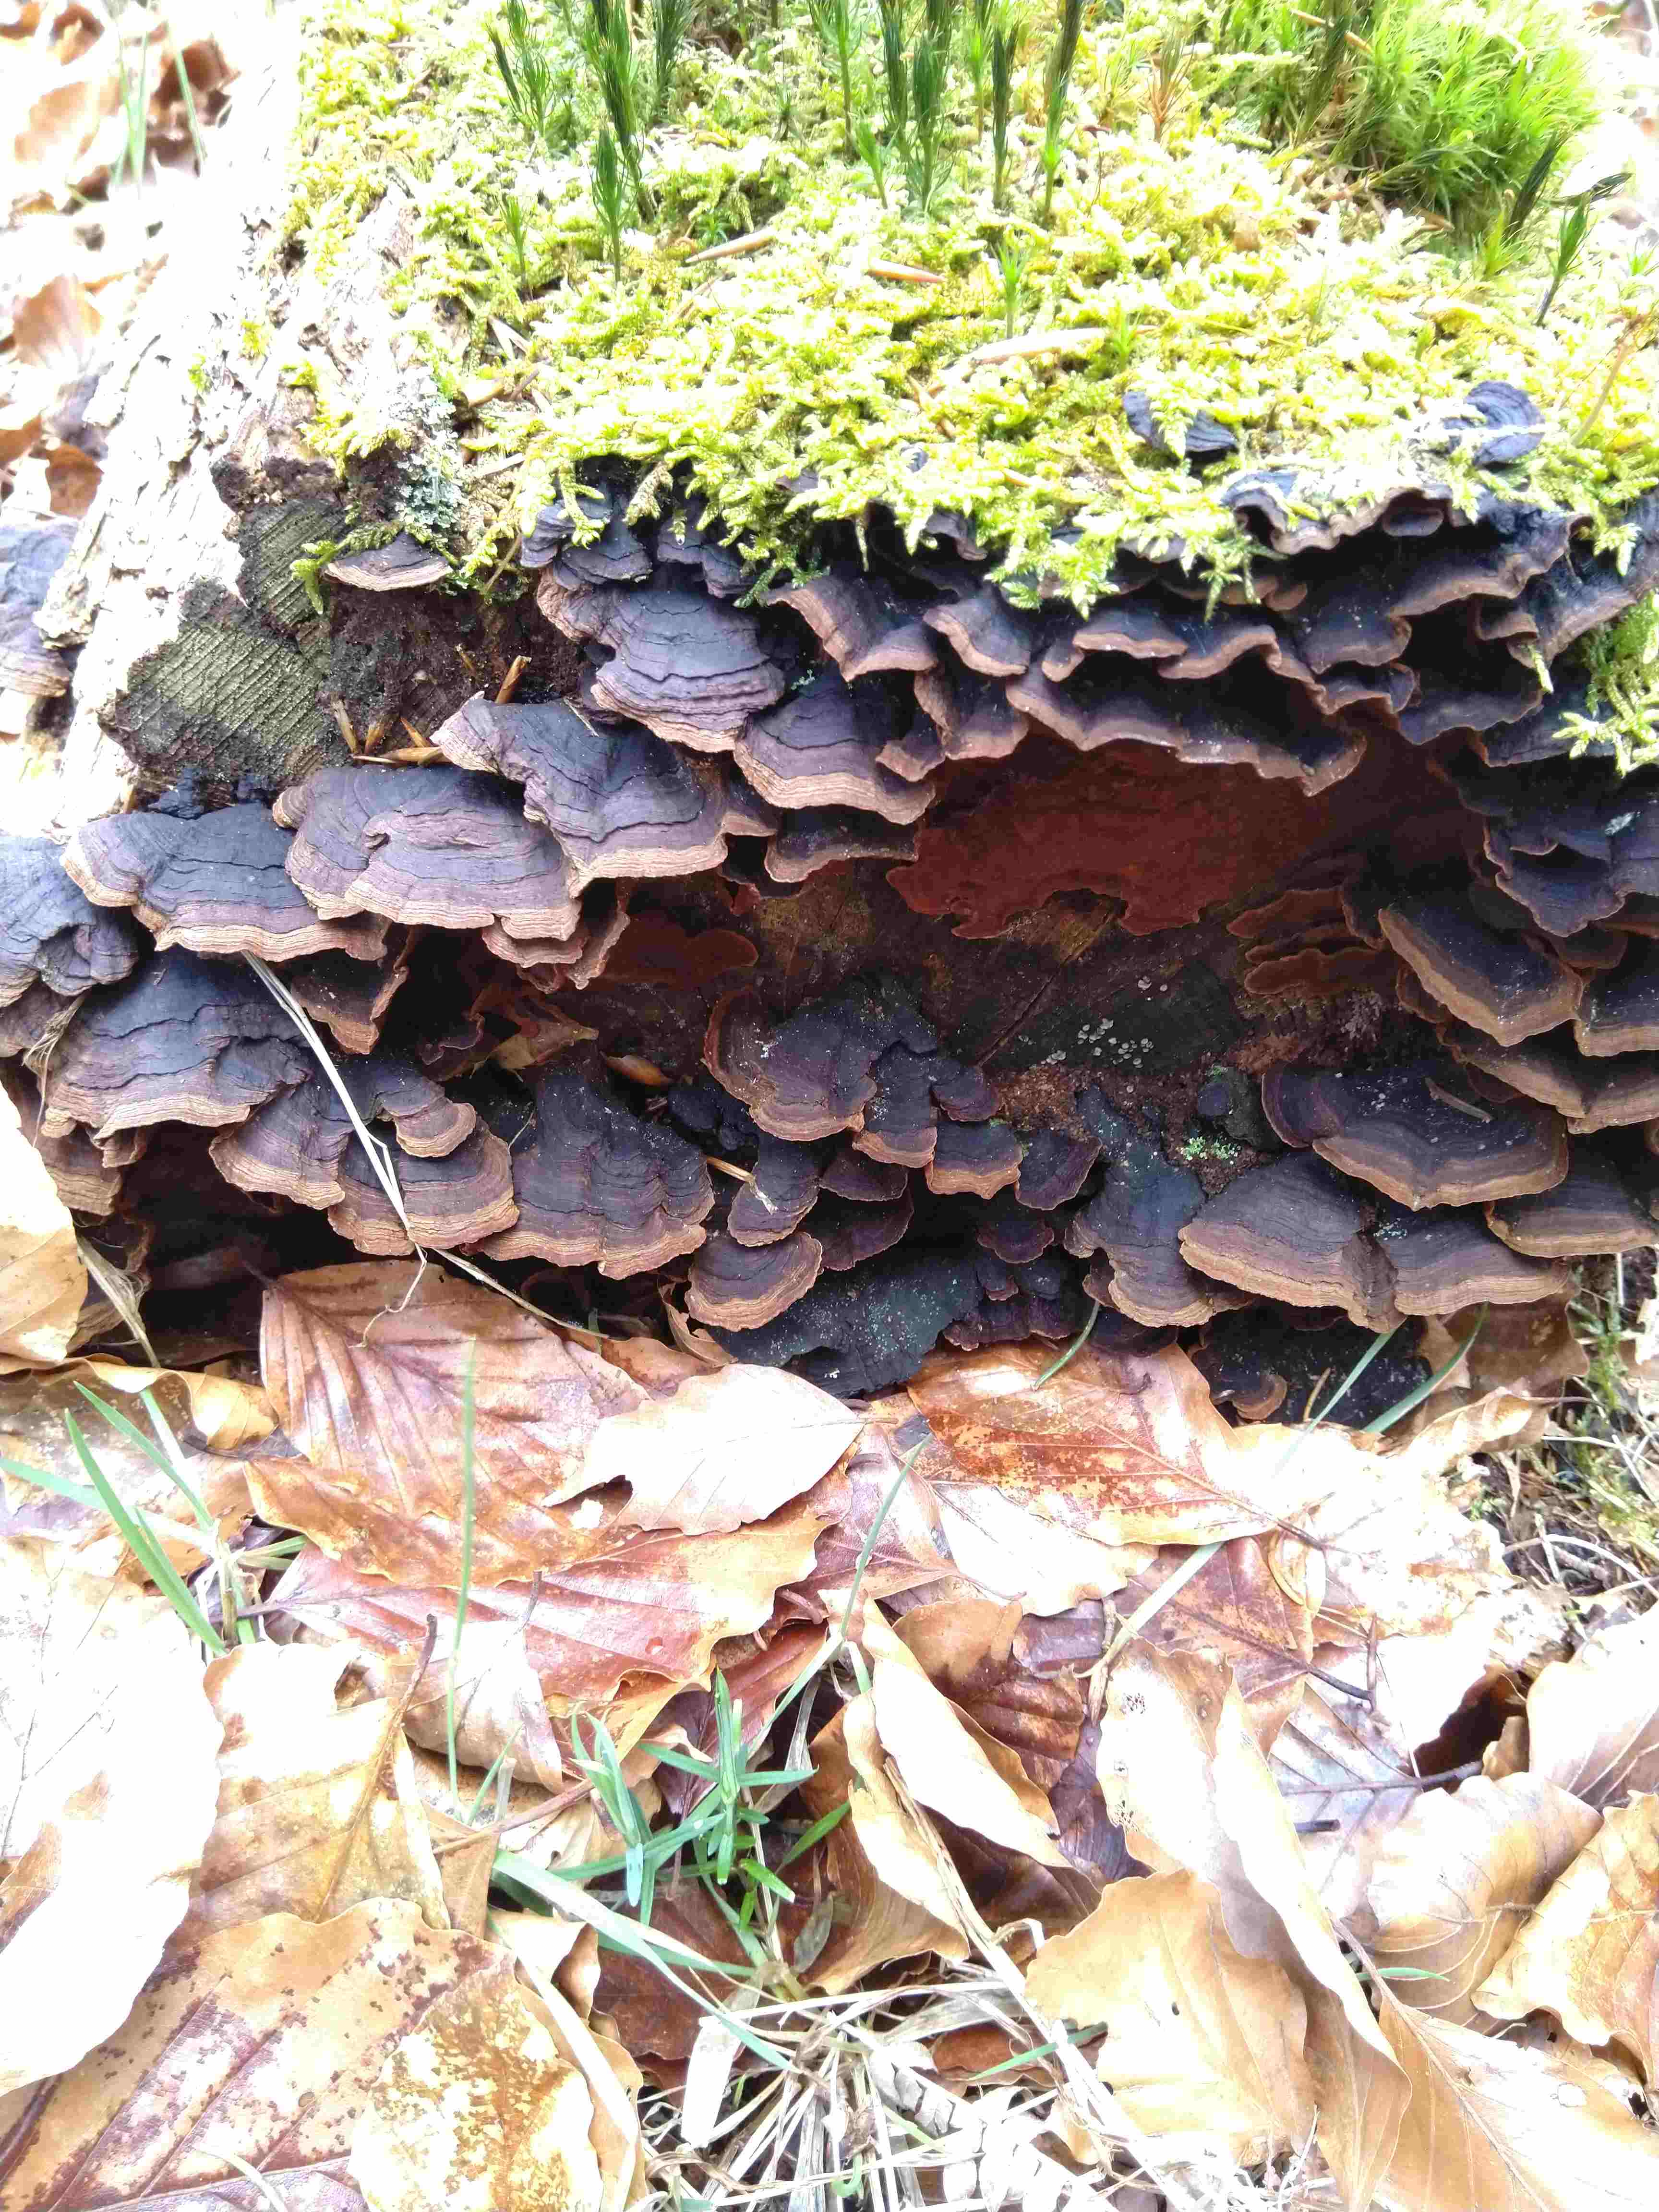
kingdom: Fungi
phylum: Basidiomycota
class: Agaricomycetes
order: Hymenochaetales
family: Hymenochaetaceae
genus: Hymenochaete
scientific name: Hymenochaete rubiginosa
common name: stiv ruslædersvamp
